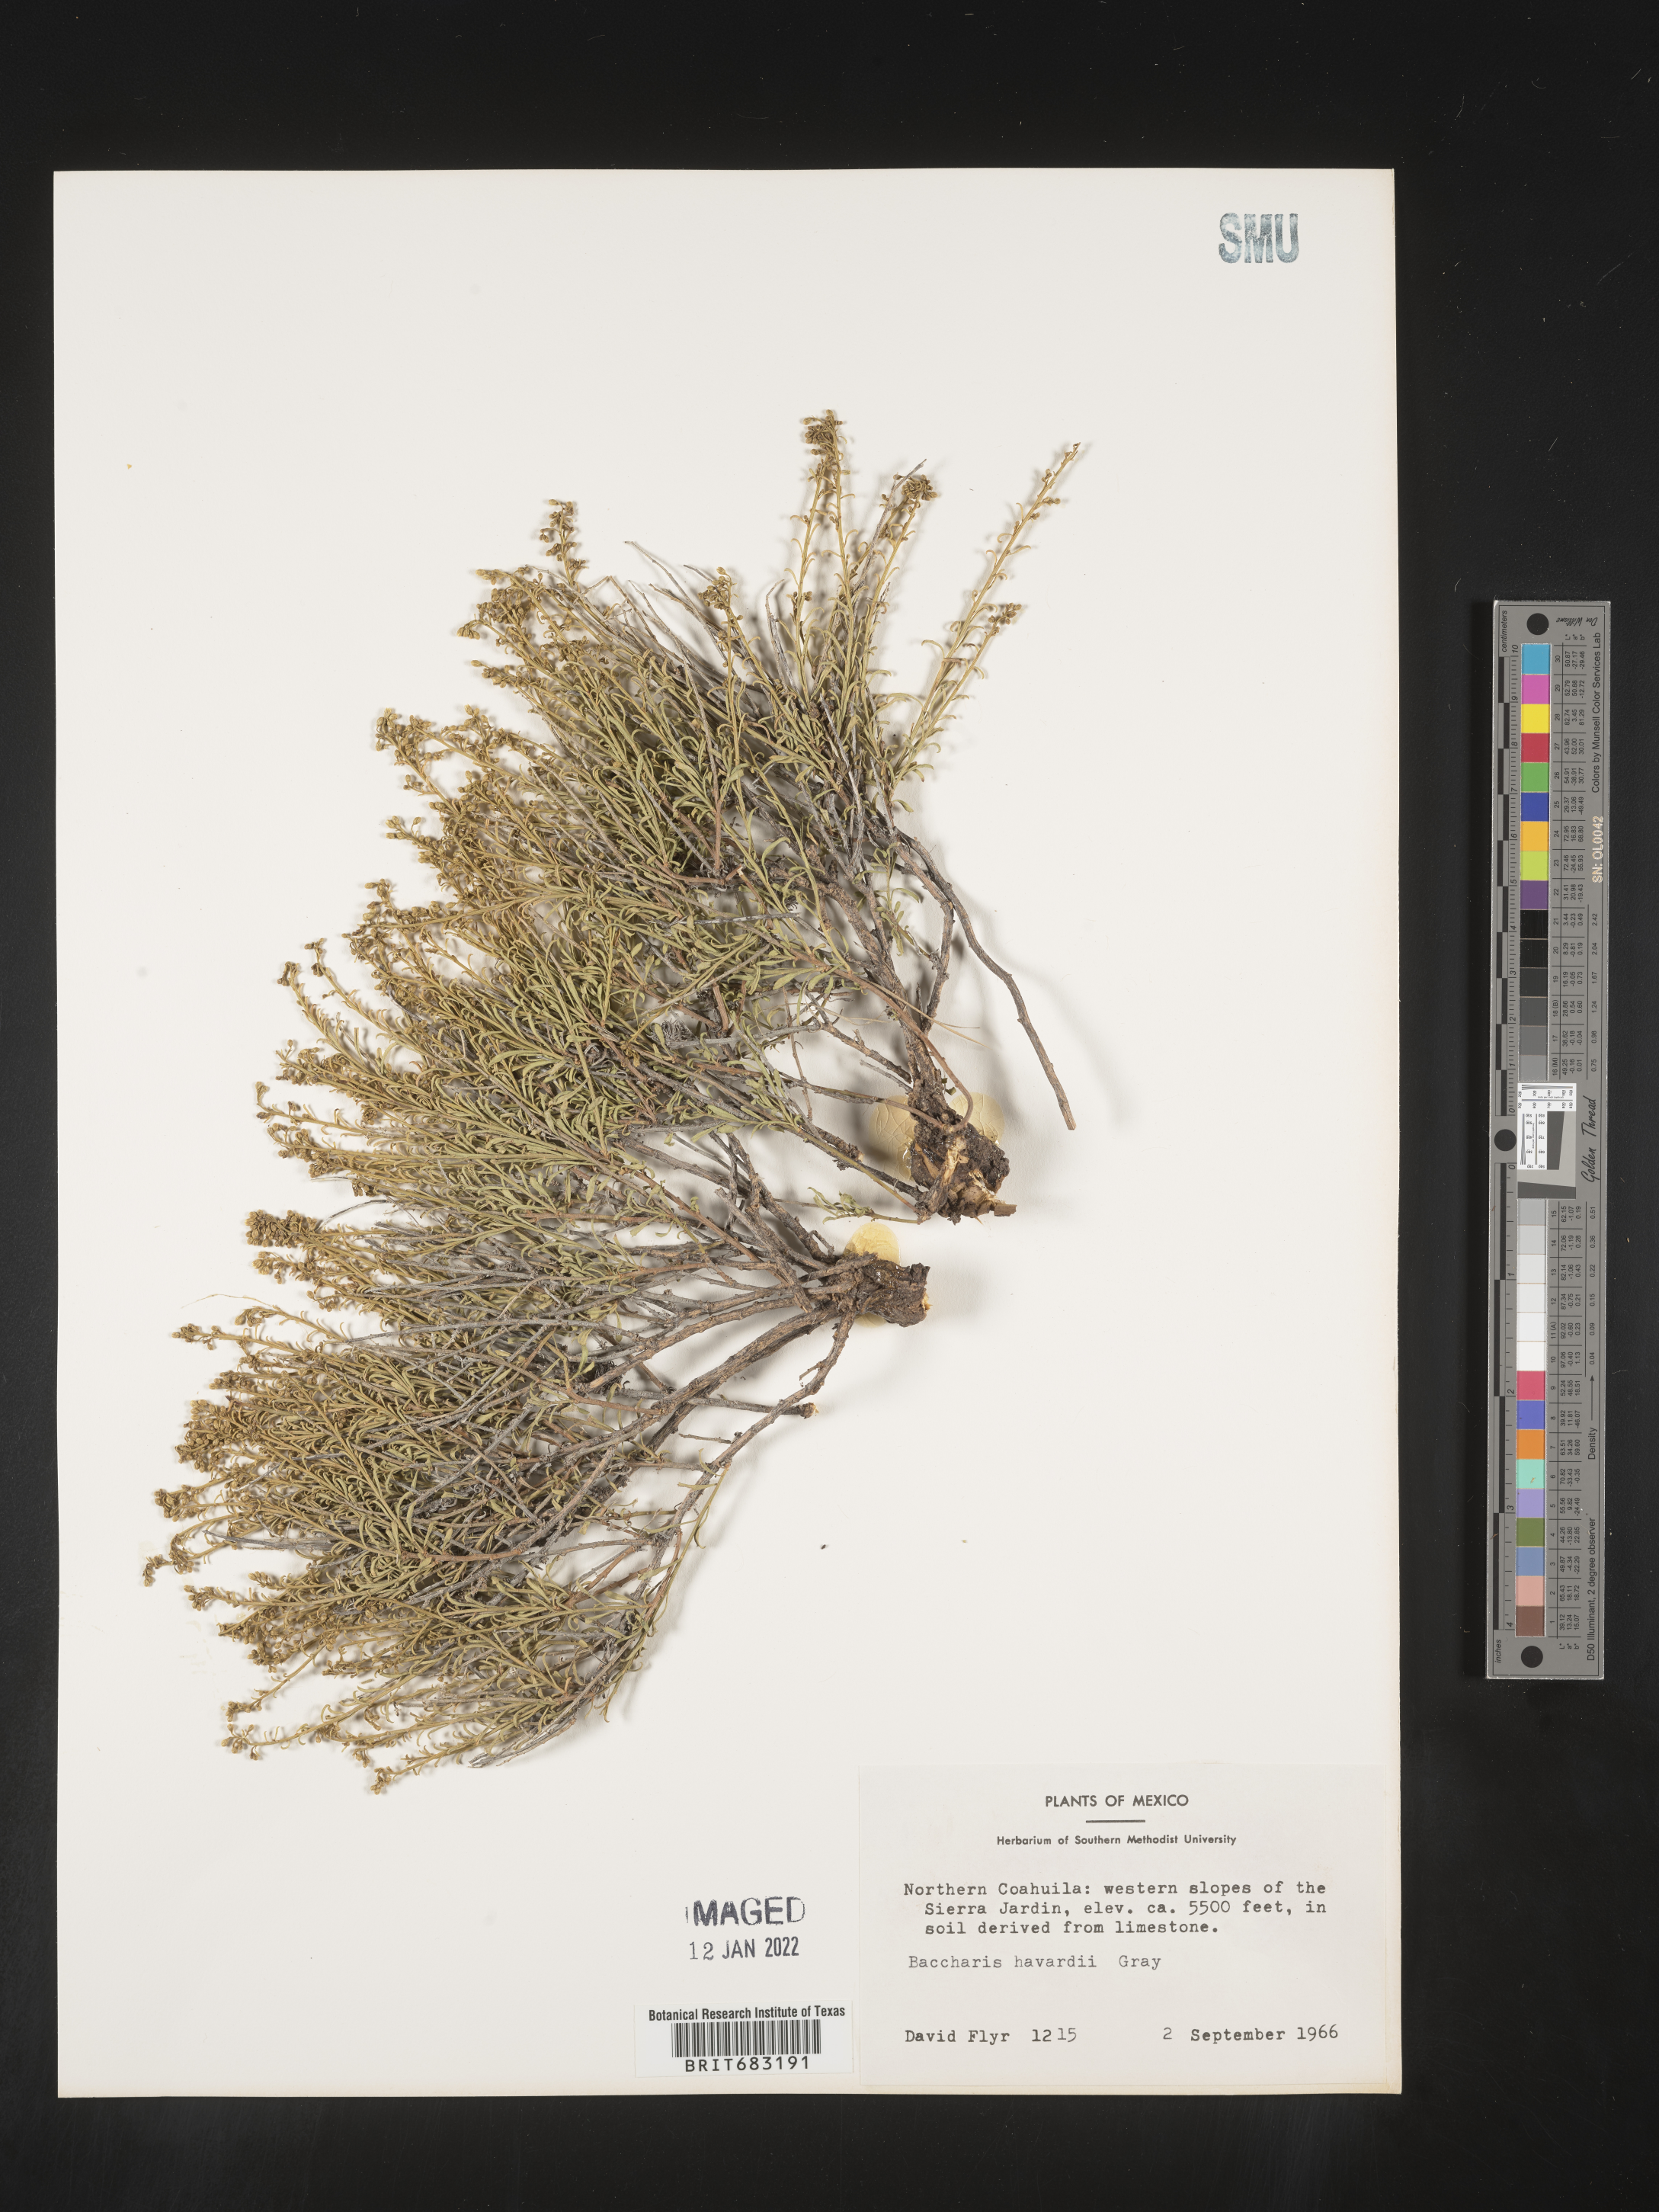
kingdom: Plantae
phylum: Tracheophyta
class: Magnoliopsida
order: Asterales
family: Asteraceae
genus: Baccharis
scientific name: Baccharis
